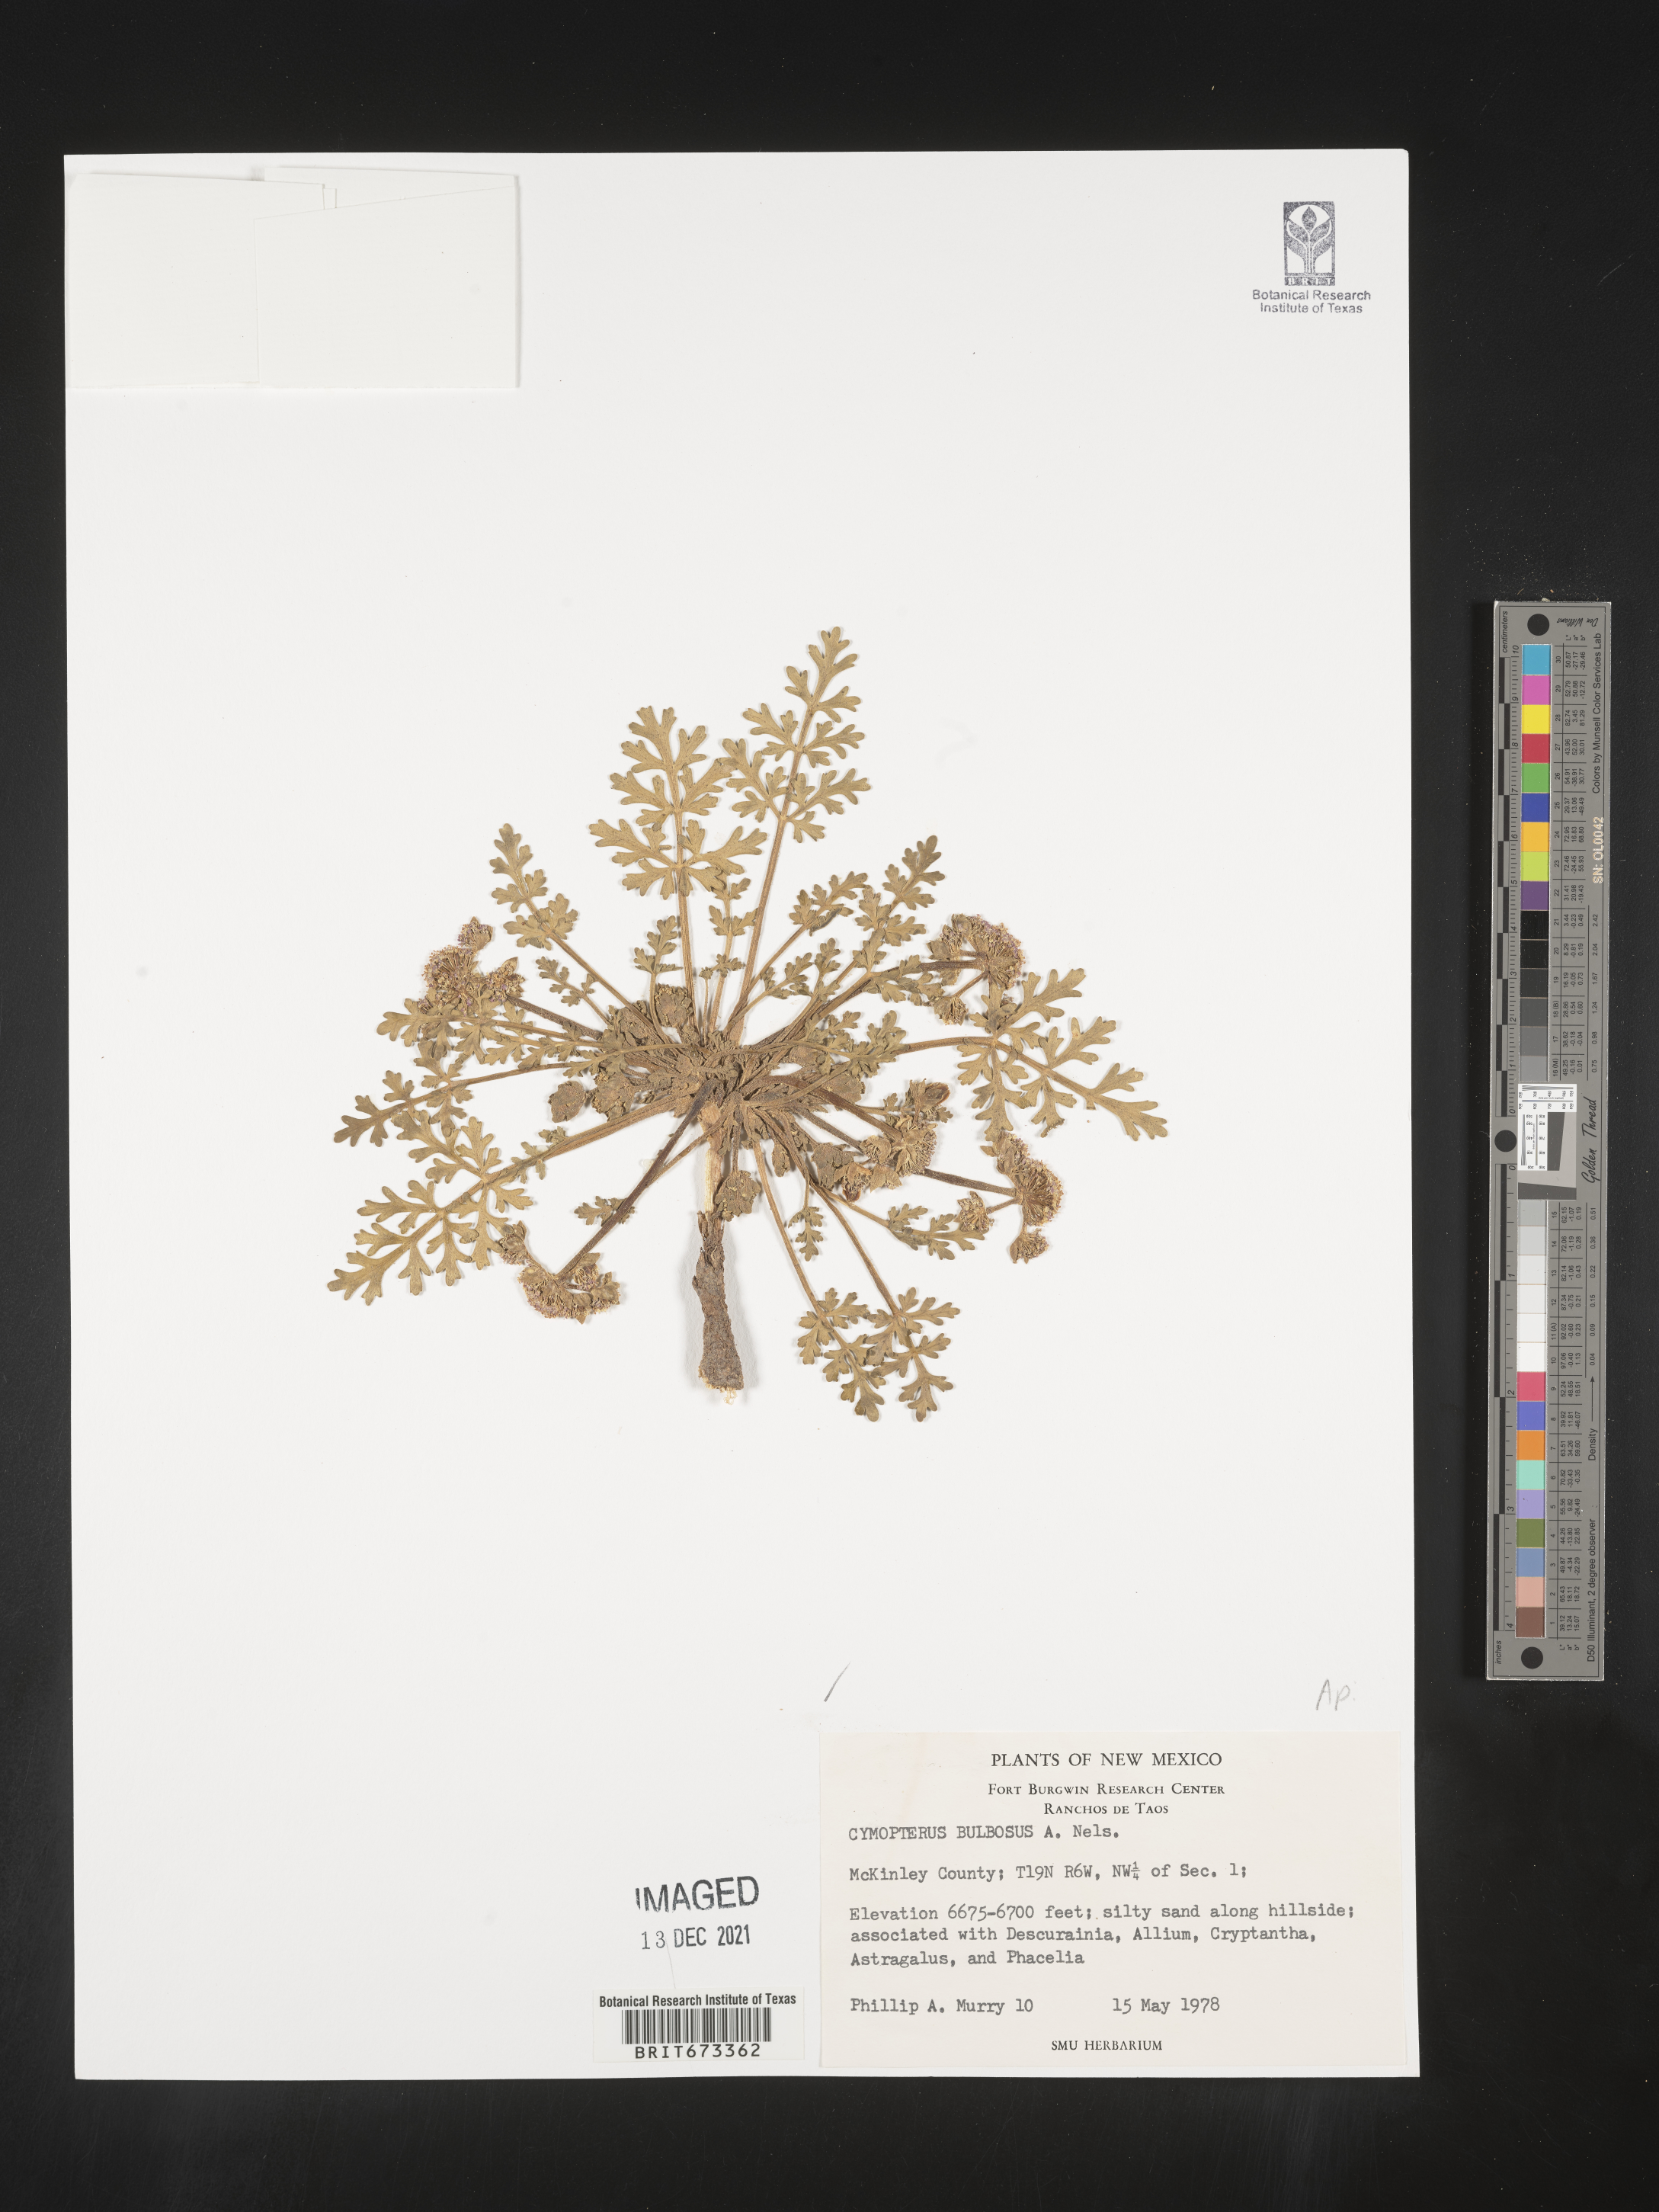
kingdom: Plantae
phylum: Tracheophyta
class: Magnoliopsida
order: Apiales
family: Apiaceae
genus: Vesper
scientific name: Vesper bulbosus
